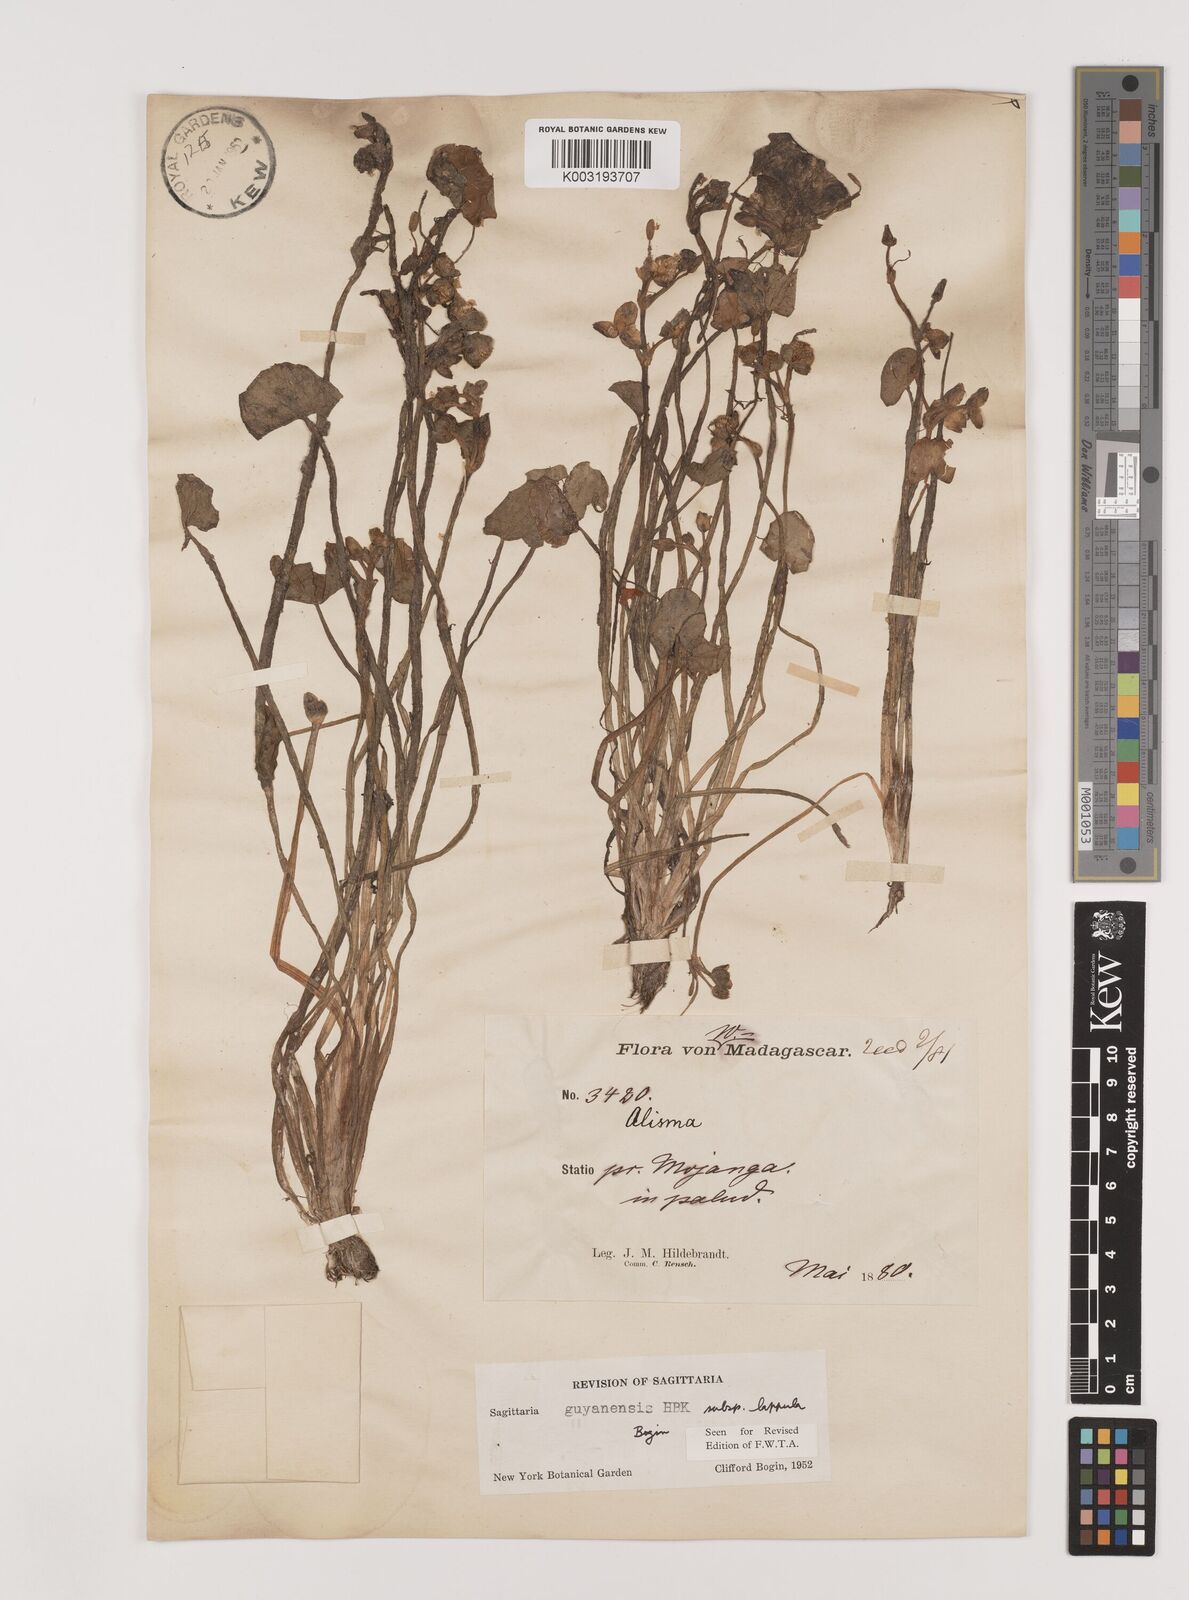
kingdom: Plantae
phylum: Tracheophyta
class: Liliopsida
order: Alismatales
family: Alismataceae
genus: Sagittaria
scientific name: Sagittaria guayanensis
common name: Guyanese arrowhead
